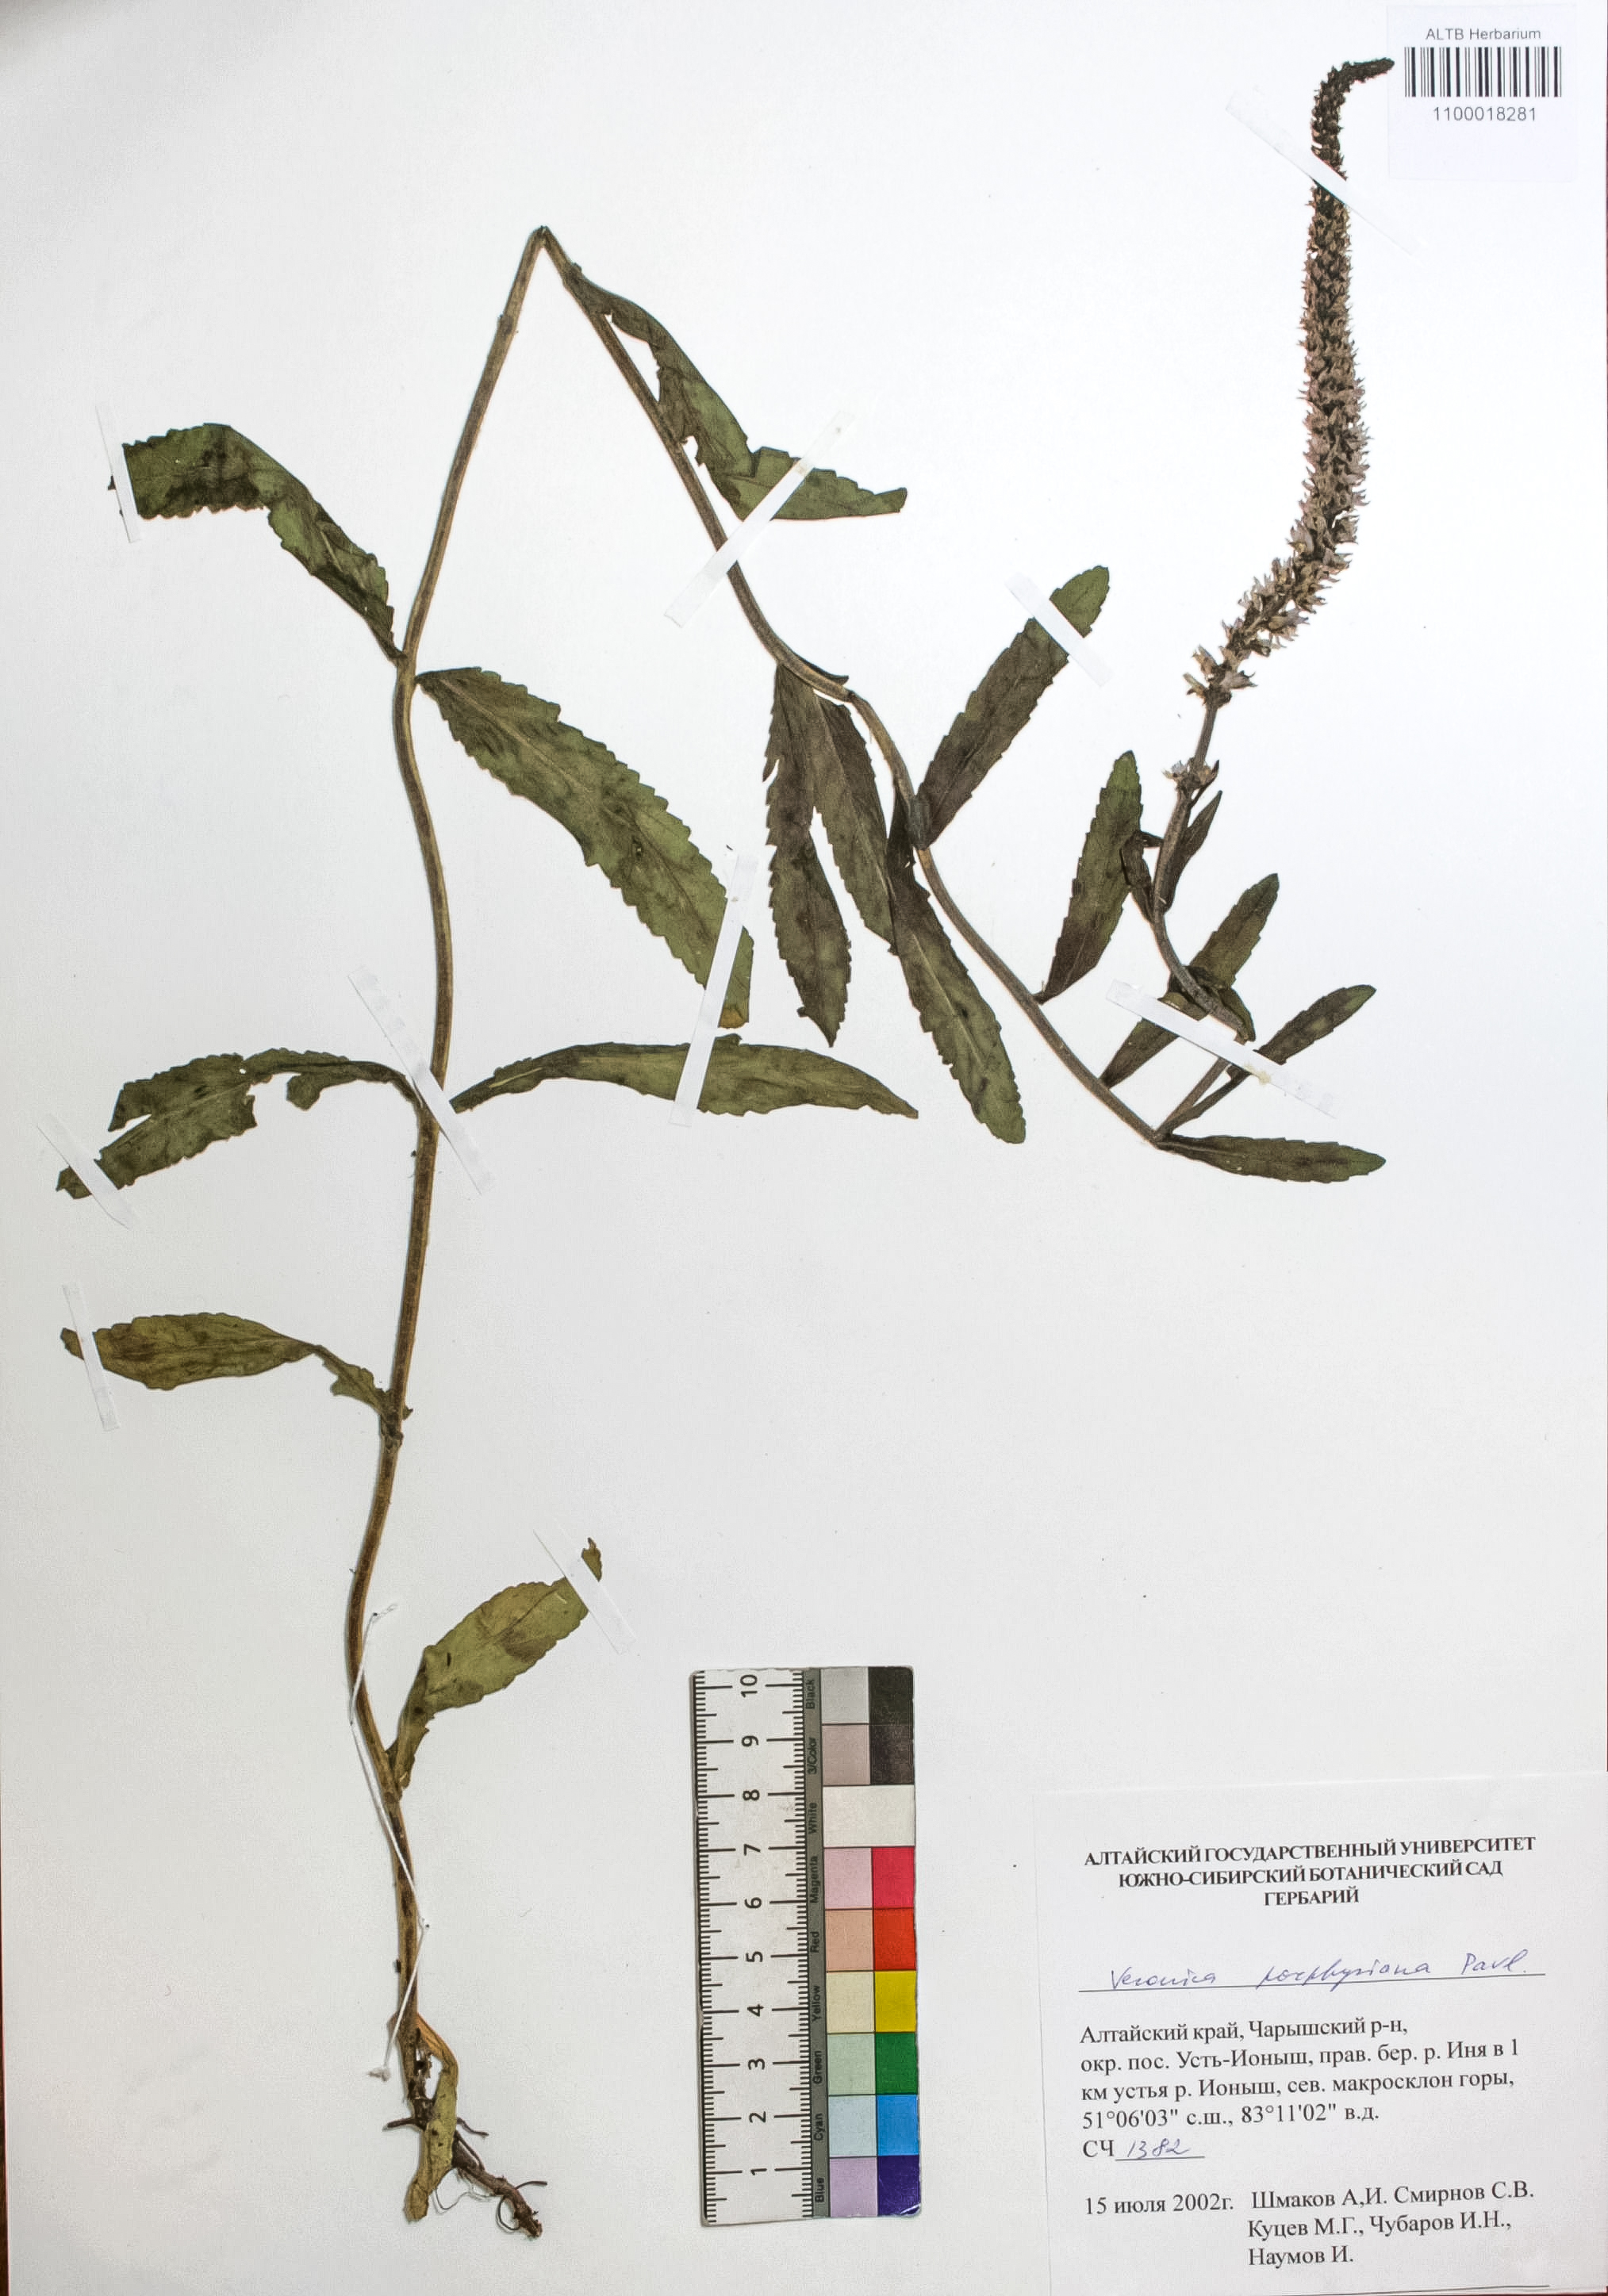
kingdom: Plantae
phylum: Tracheophyta
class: Magnoliopsida
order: Lamiales
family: Plantaginaceae
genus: Veronica
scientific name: Veronica porphyriana
